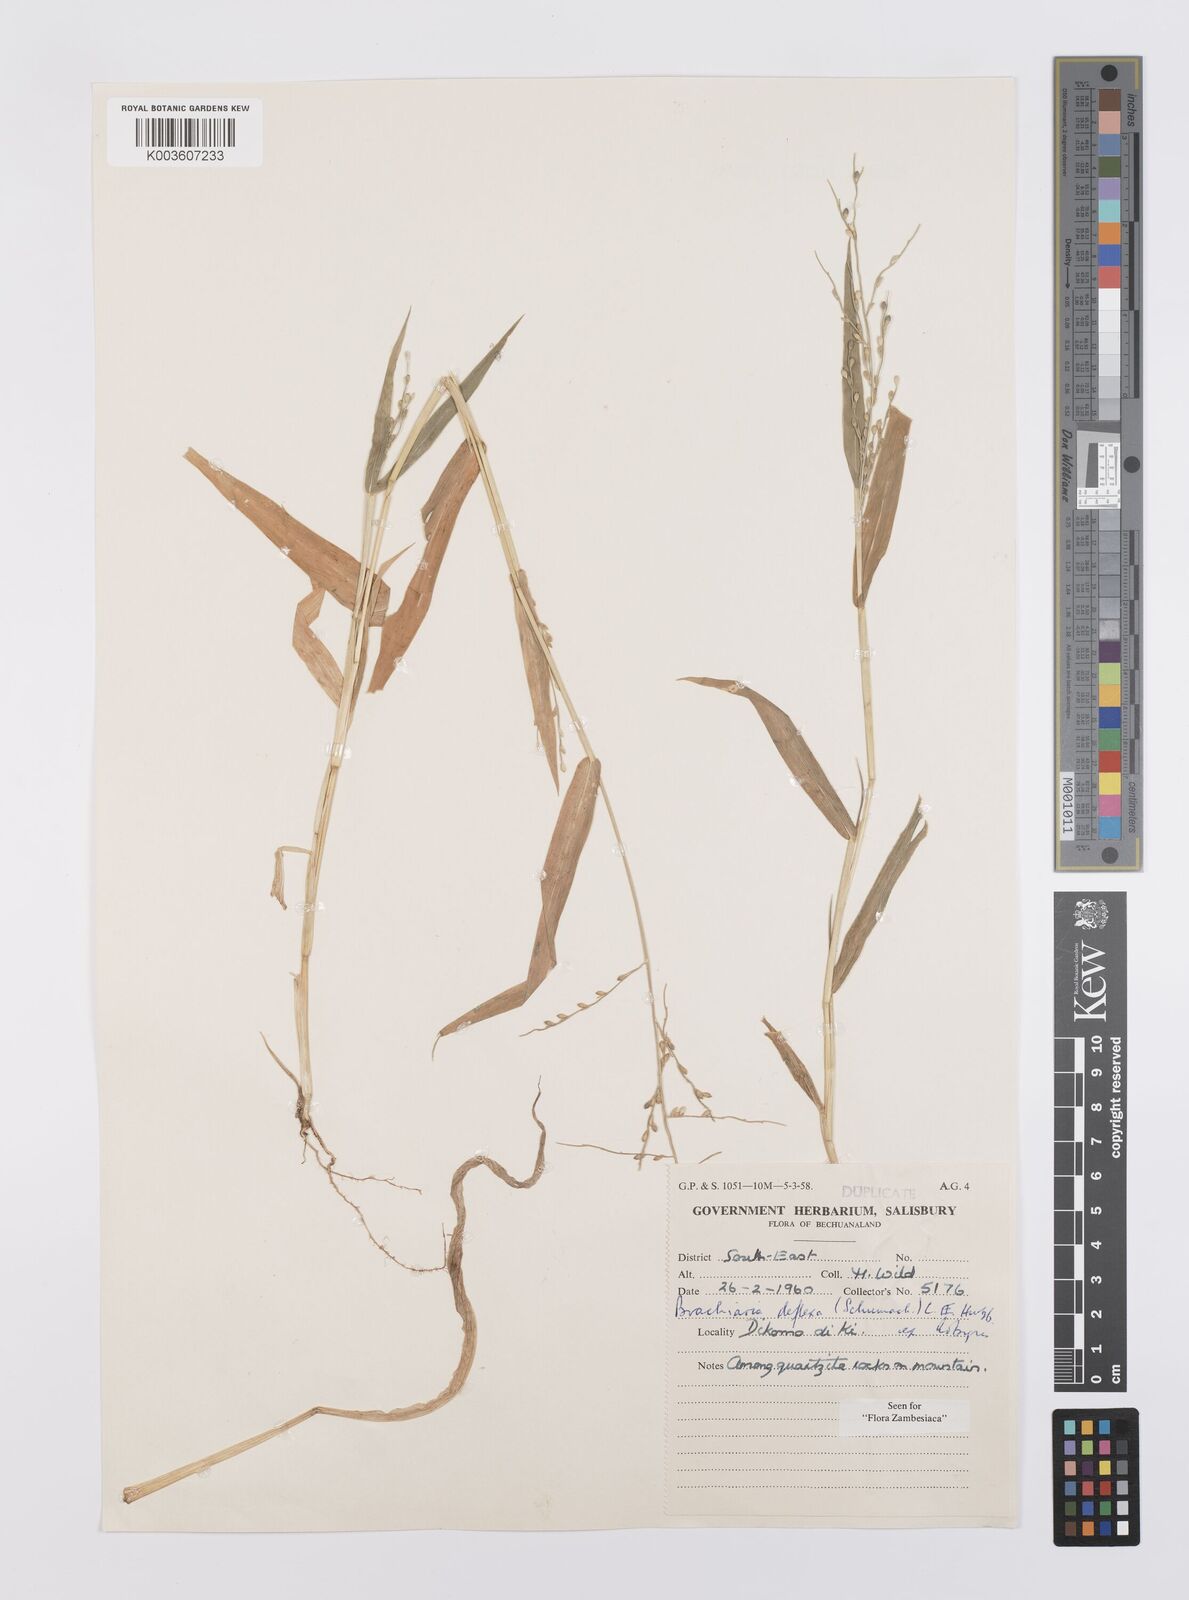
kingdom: Plantae
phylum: Tracheophyta
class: Liliopsida
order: Poales
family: Poaceae
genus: Urochloa
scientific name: Urochloa deflexa
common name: Guinea millet
